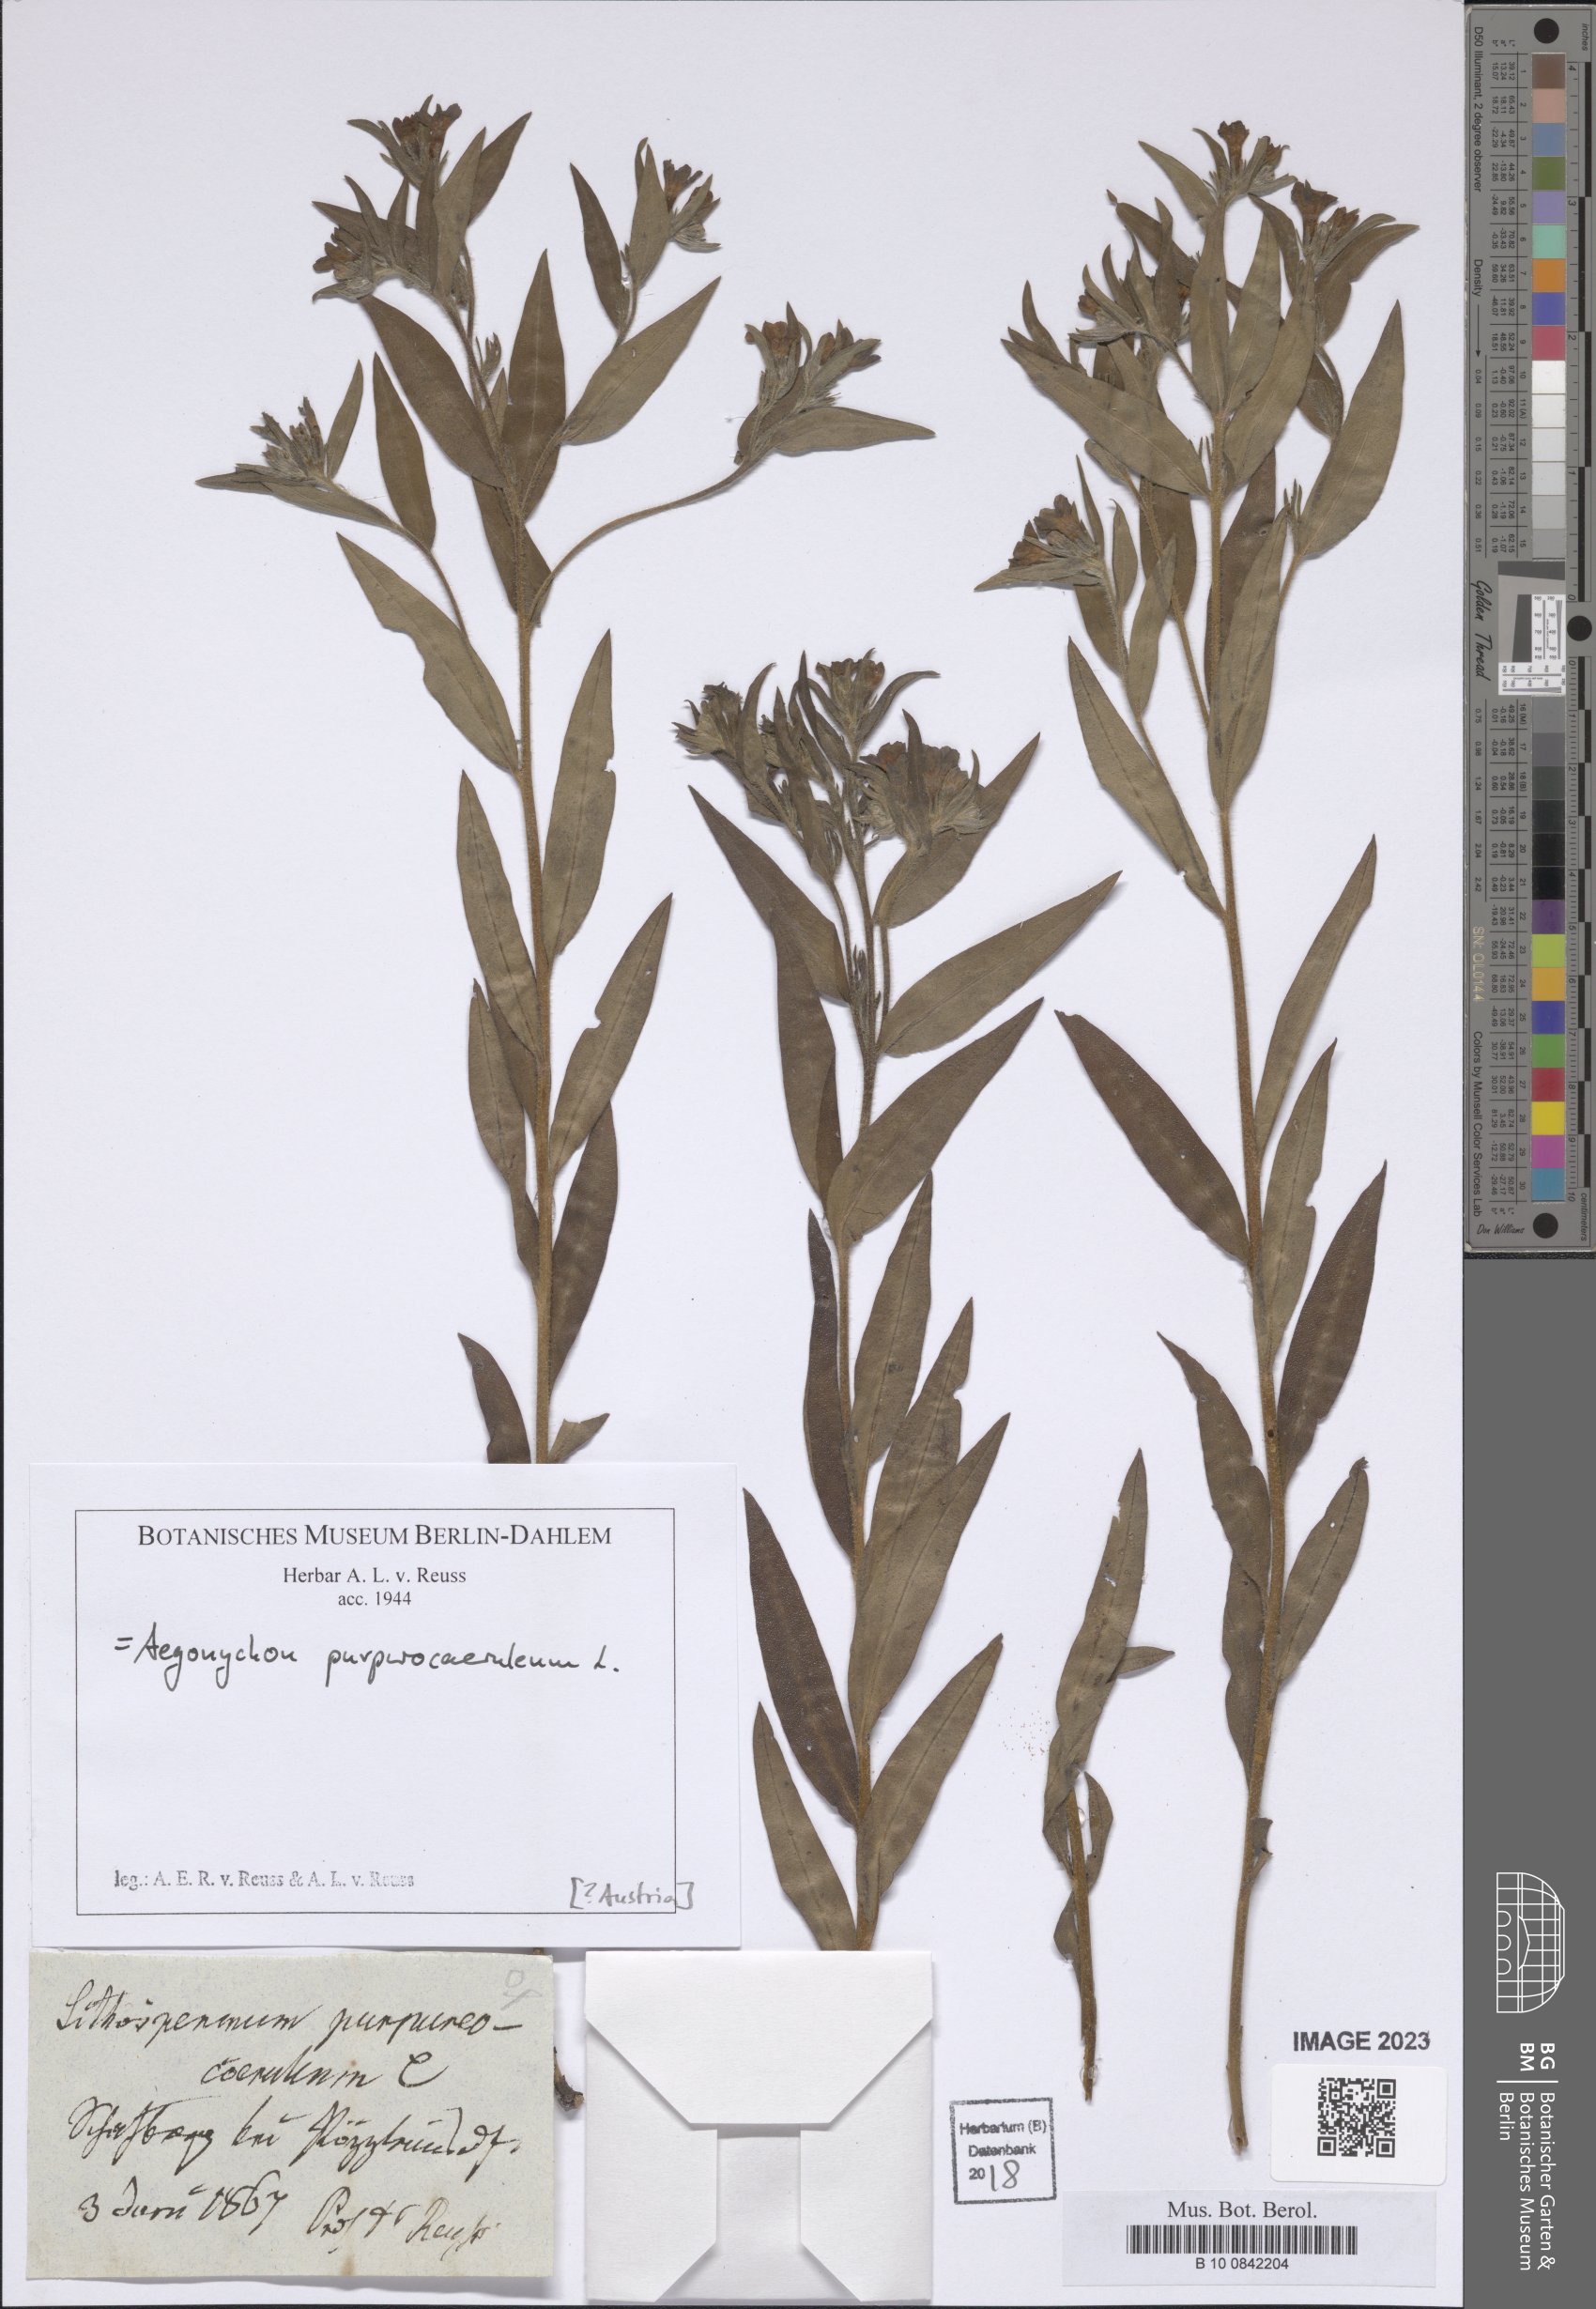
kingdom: Plantae
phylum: Tracheophyta
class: Magnoliopsida
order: Boraginales
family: Boraginaceae
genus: Aegonychon
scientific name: Aegonychon purpurocaeruleum
